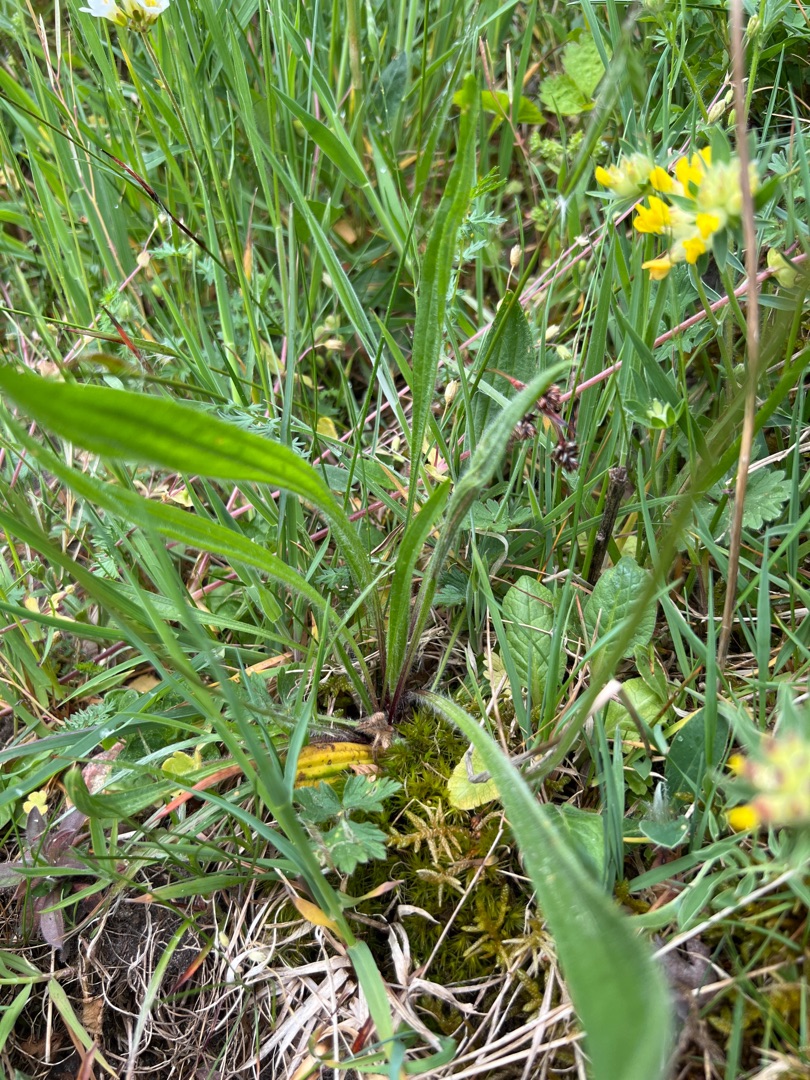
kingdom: Plantae
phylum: Tracheophyta
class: Magnoliopsida
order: Lamiales
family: Plantaginaceae
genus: Plantago
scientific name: Plantago lanceolata
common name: Lancet-vejbred
